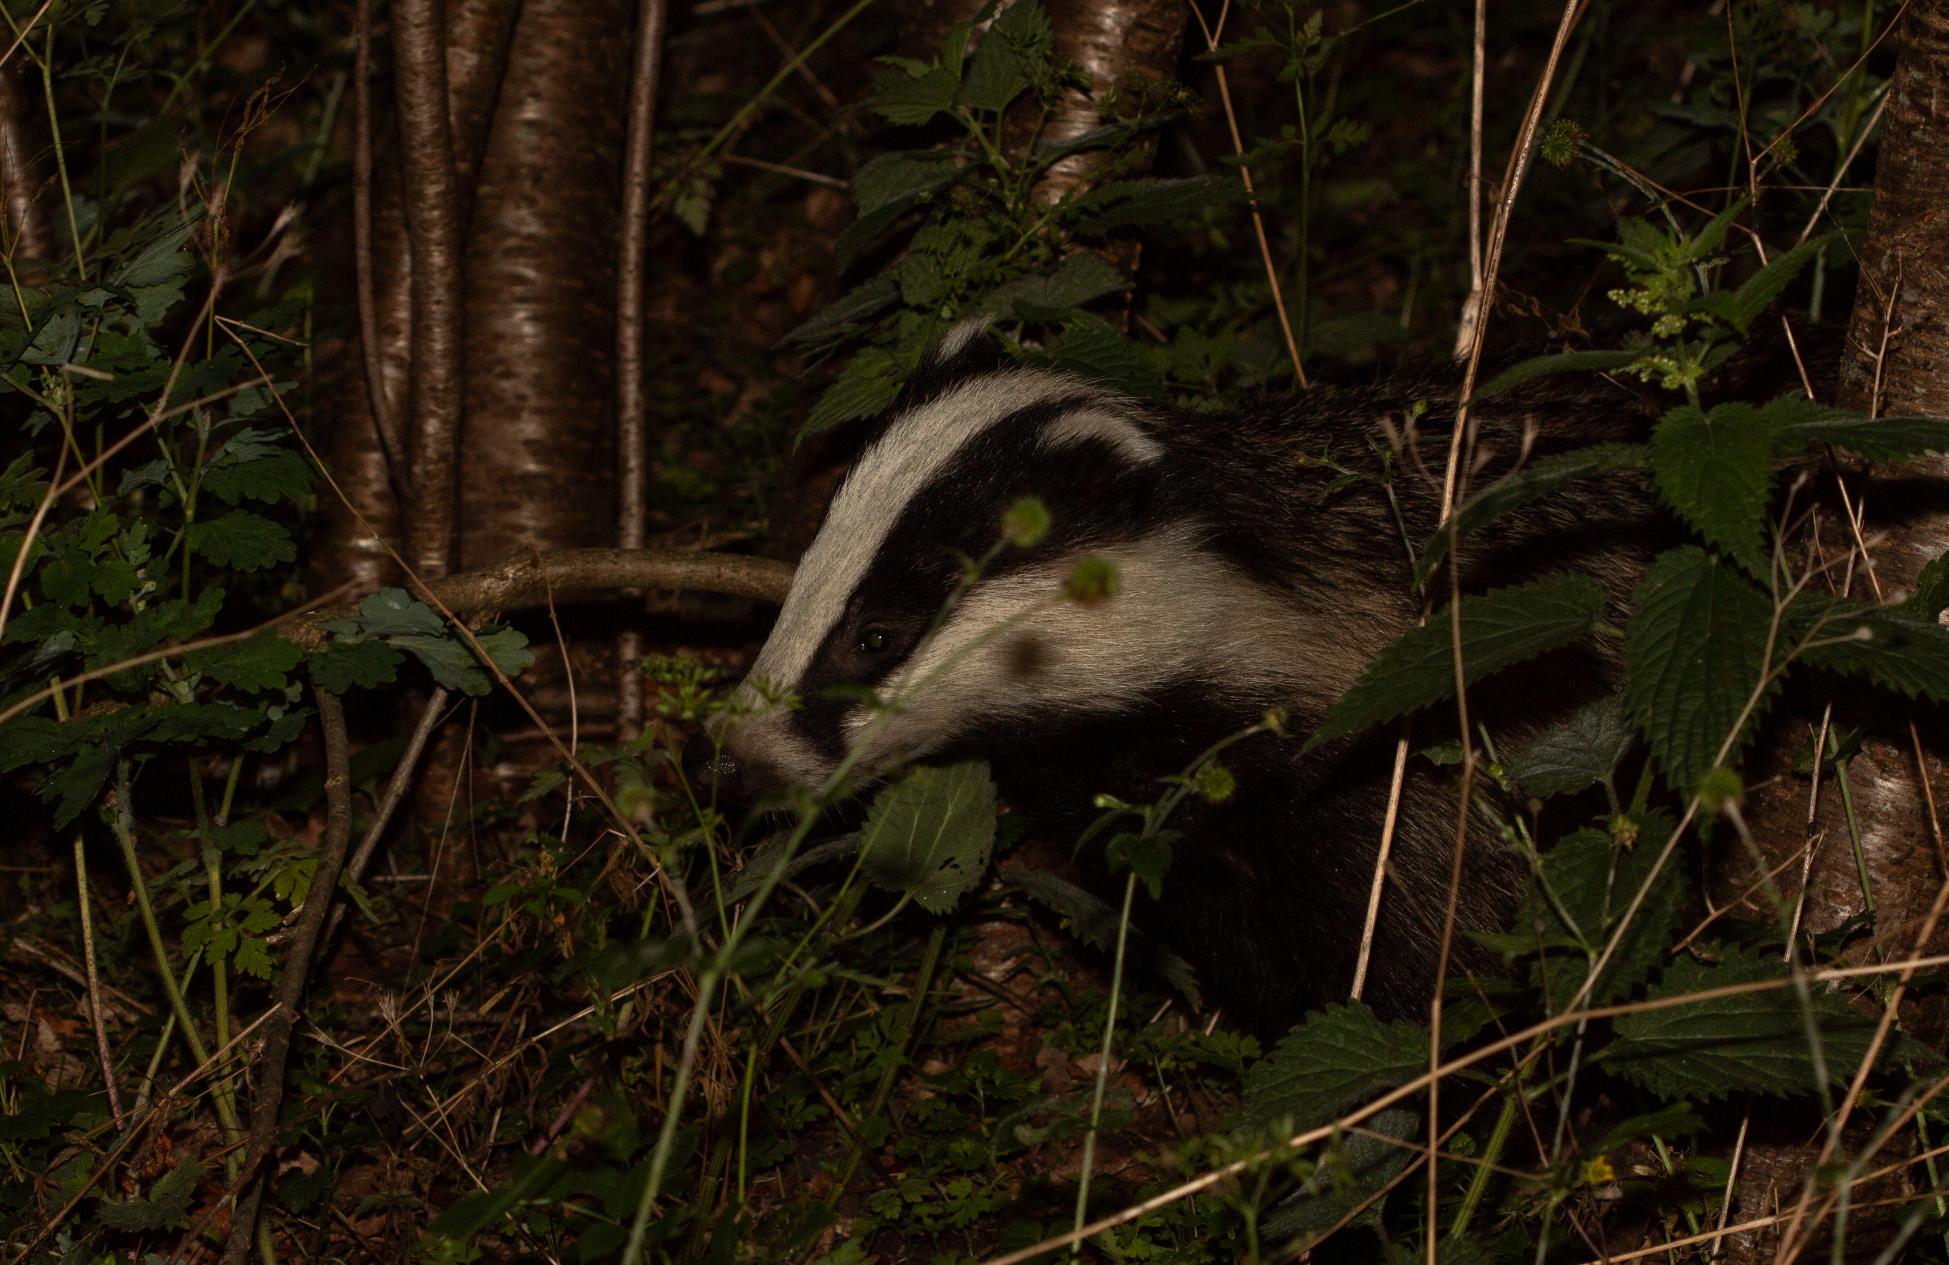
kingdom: Animalia
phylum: Chordata
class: Mammalia
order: Carnivora
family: Mustelidae
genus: Meles
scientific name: Meles meles
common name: Grævling
